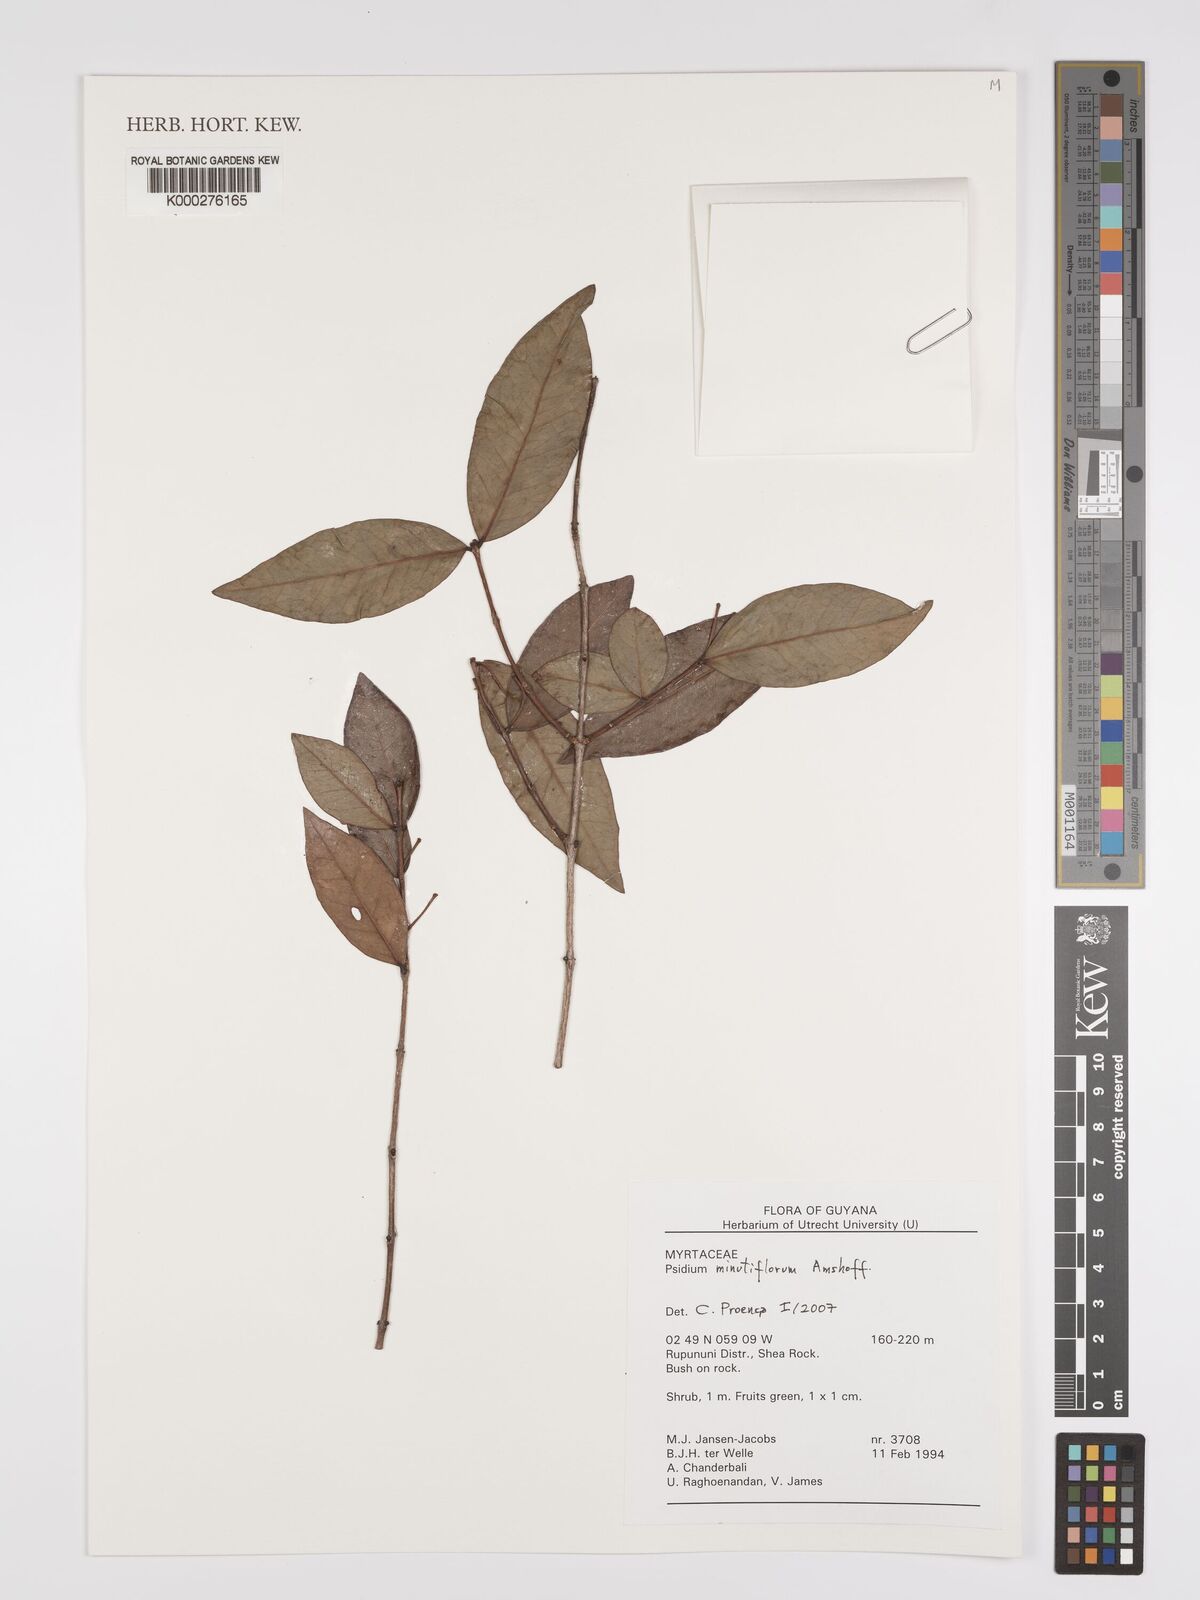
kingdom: Plantae
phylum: Tracheophyta
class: Magnoliopsida
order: Myrtales
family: Myrtaceae
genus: Psidium
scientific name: Psidium minutiflorum
